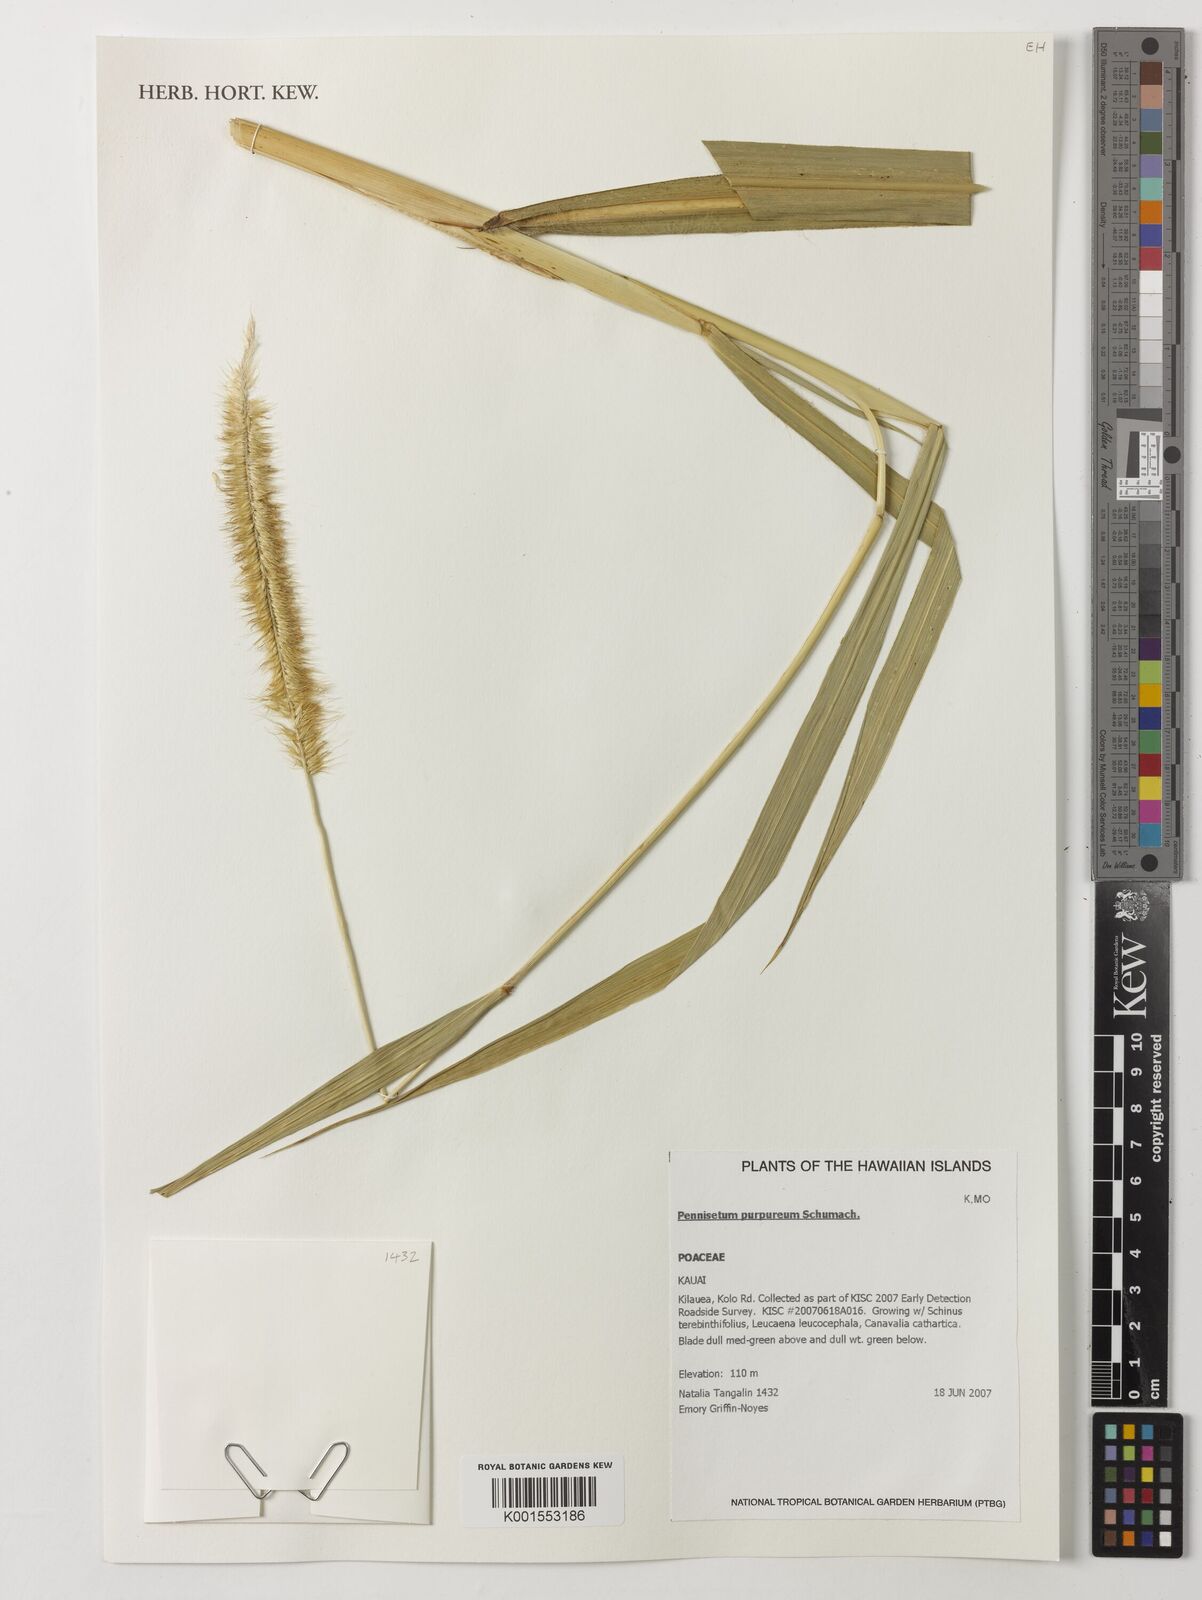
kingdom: Plantae
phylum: Tracheophyta
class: Liliopsida
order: Poales
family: Poaceae
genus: Cenchrus
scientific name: Cenchrus purpureus
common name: Elephant grass
